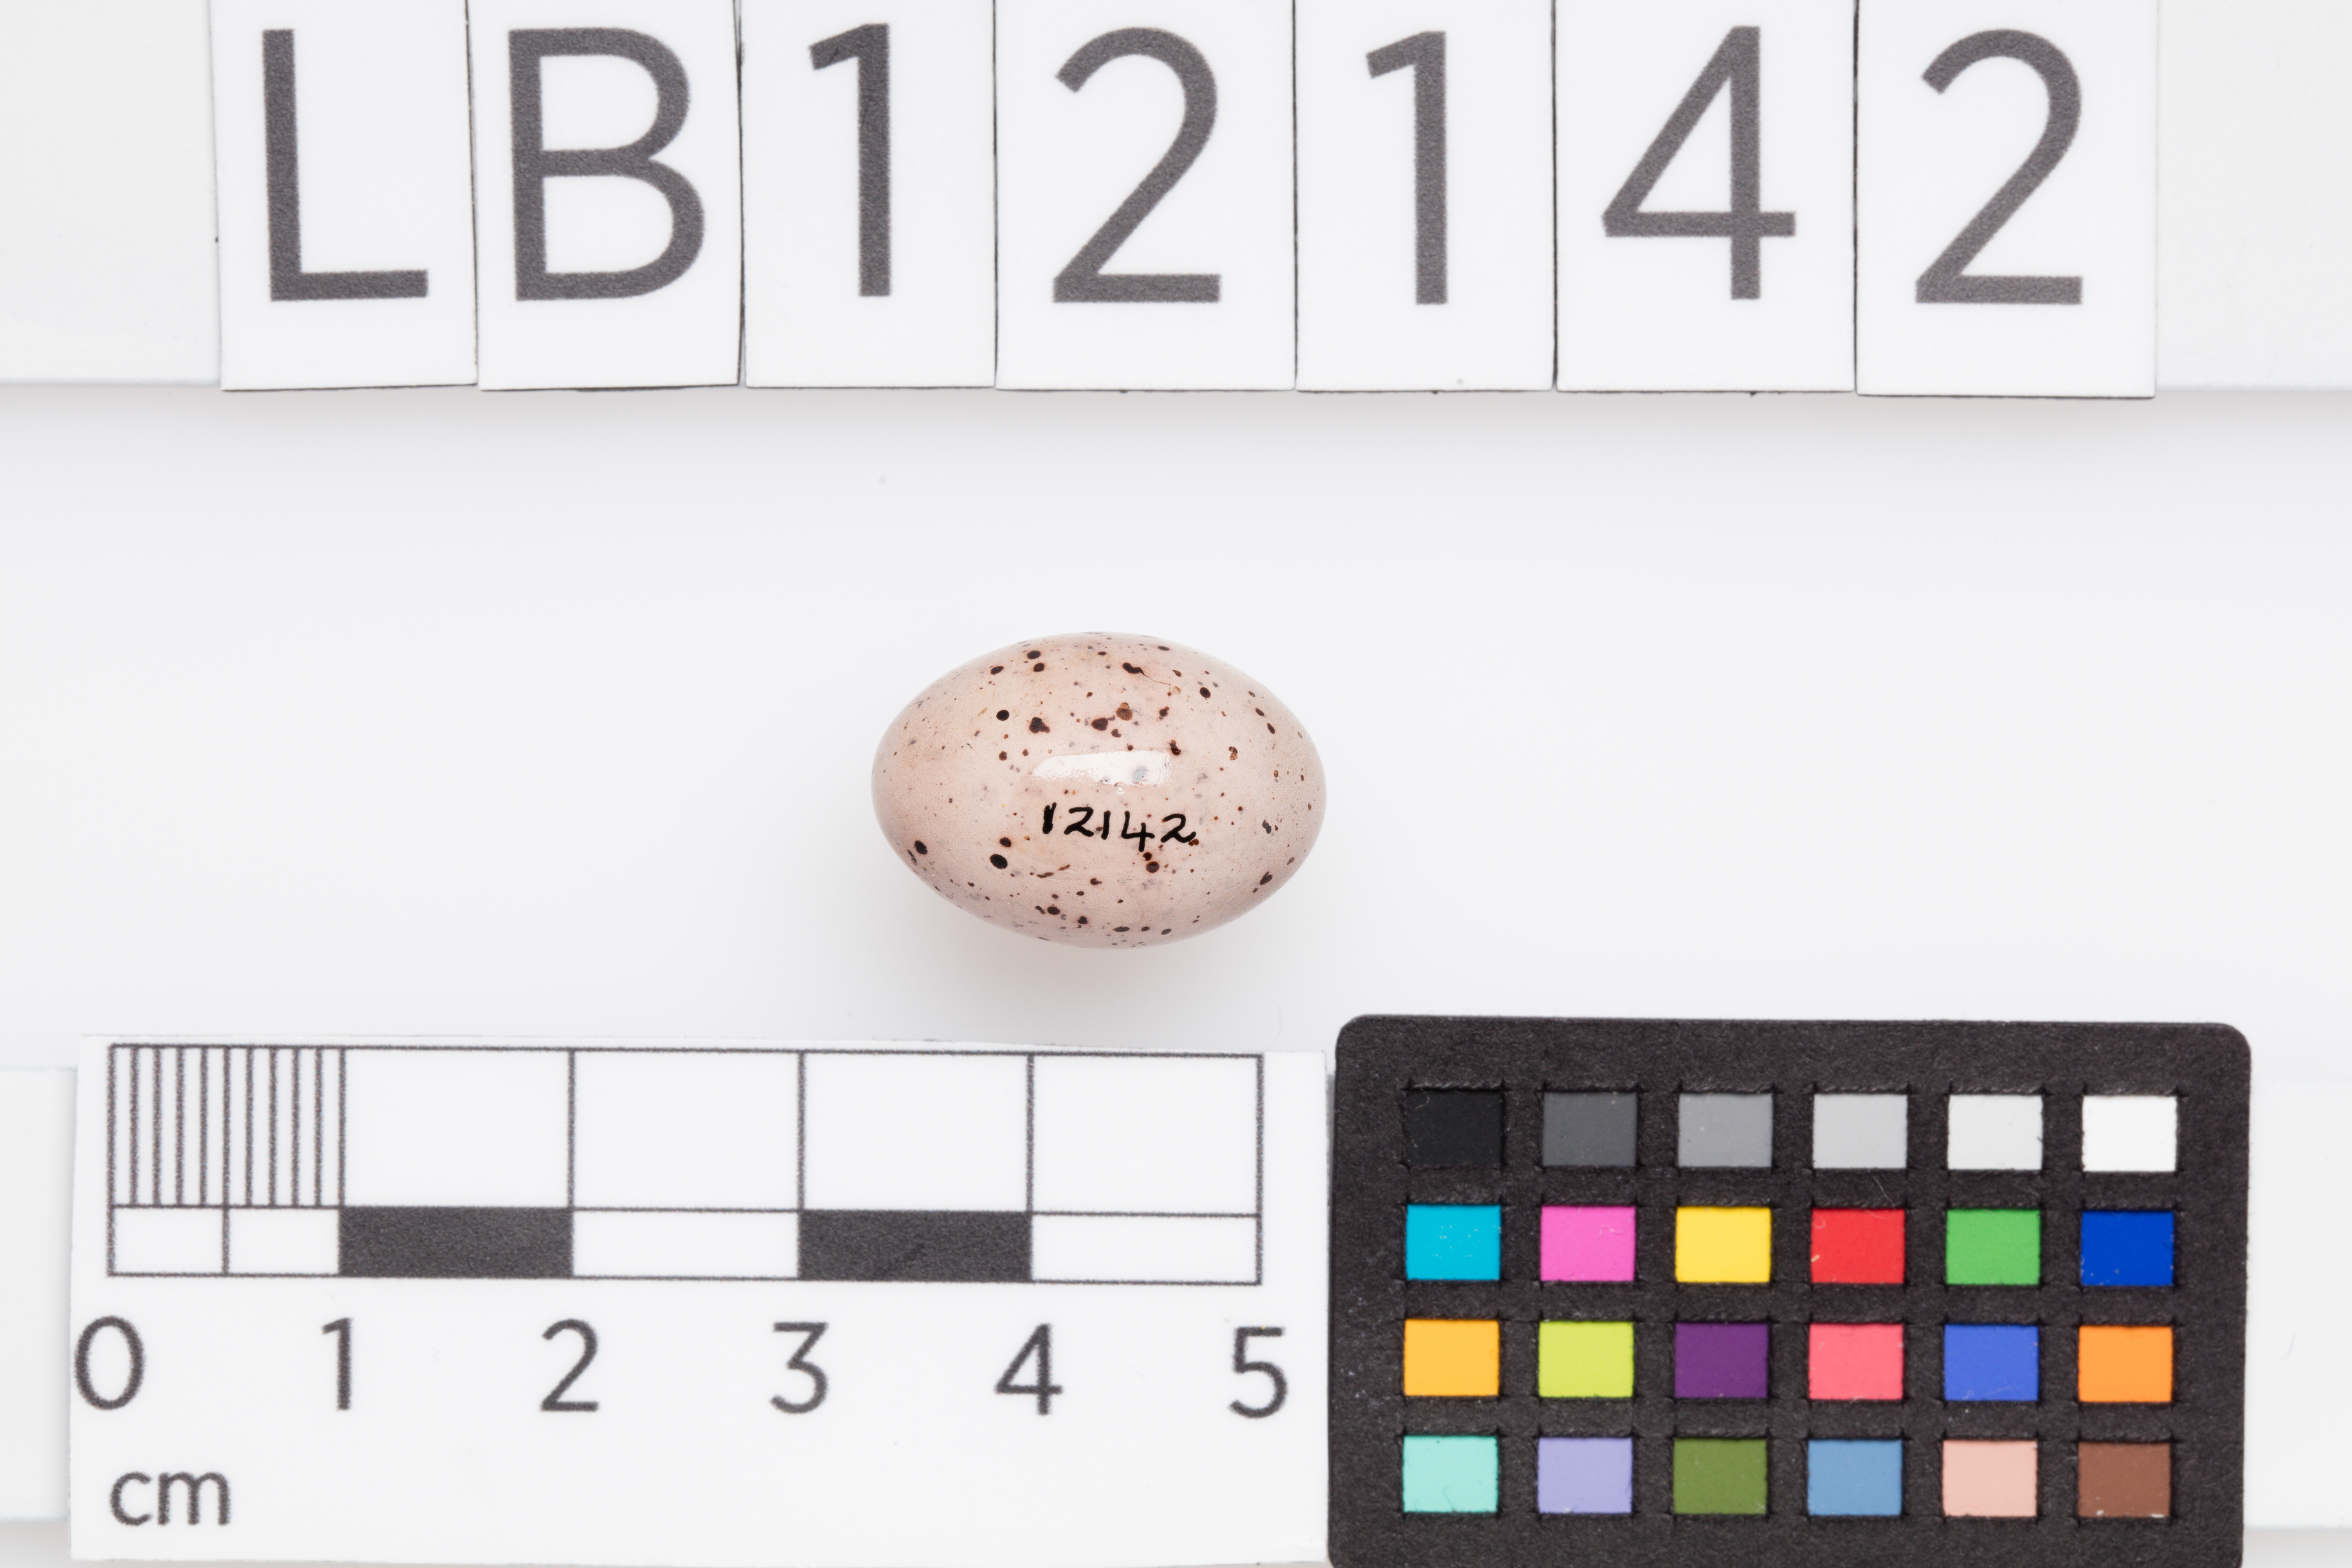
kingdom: Animalia
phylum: Chordata
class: Aves
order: Passeriformes
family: Acrocephalidae
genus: Hippolais
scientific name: Hippolais icterina
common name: Icterine warbler
